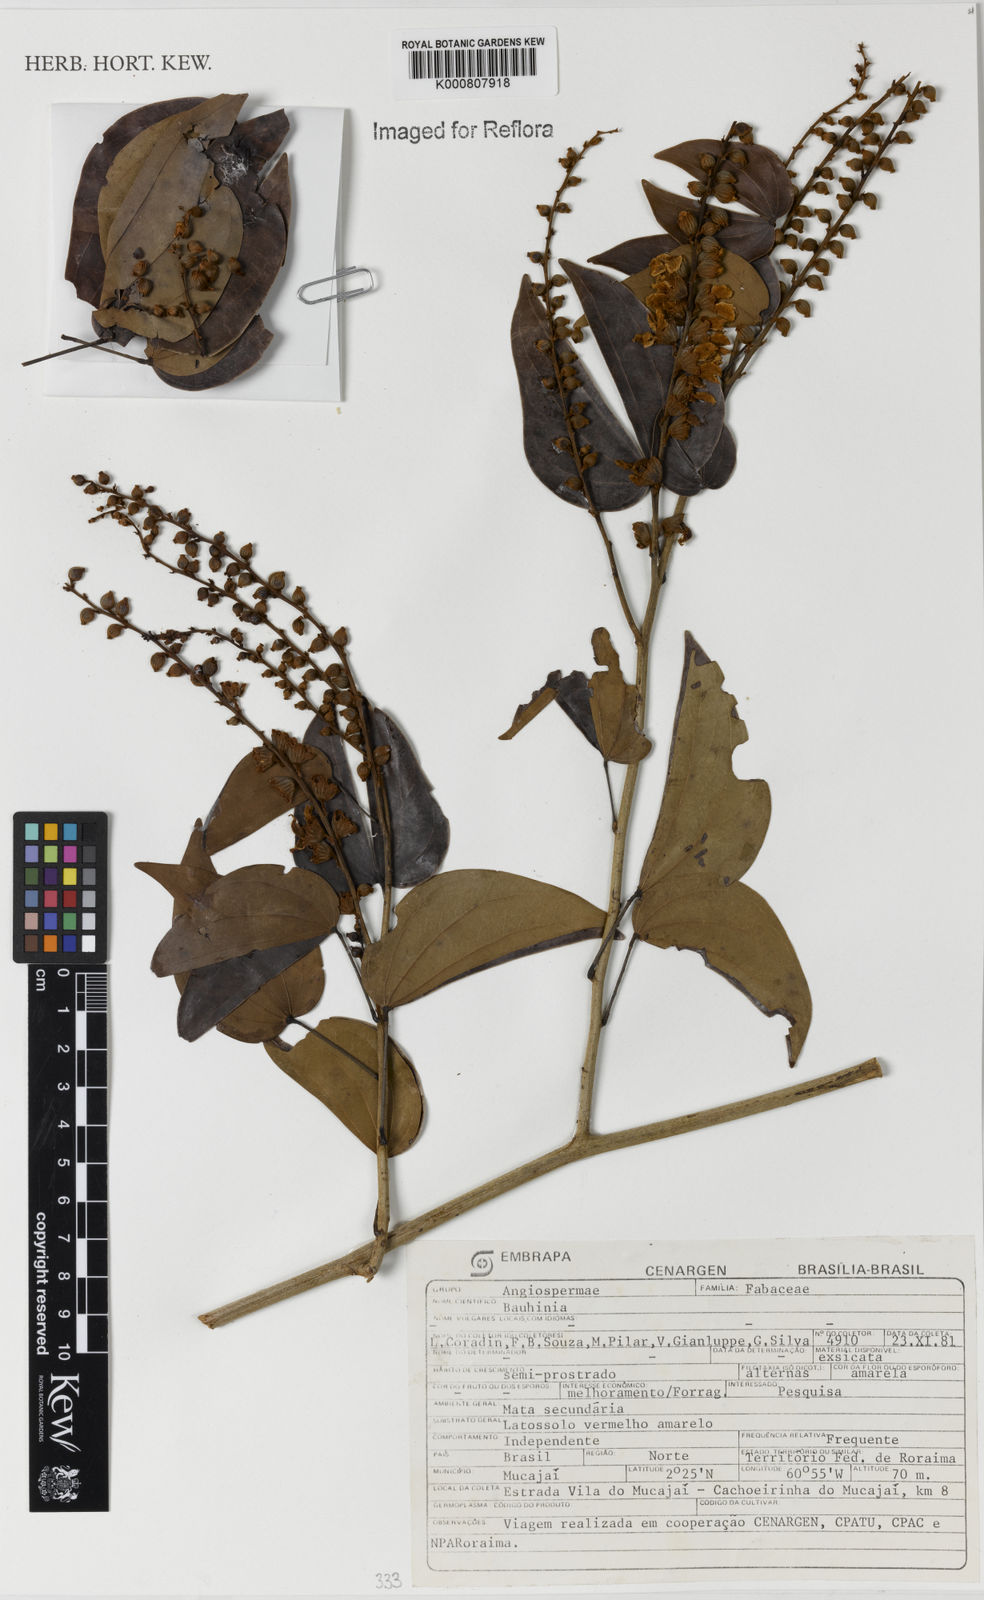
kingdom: Plantae
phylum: Tracheophyta
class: Magnoliopsida
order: Fabales
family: Fabaceae
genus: Schnella
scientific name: Schnella splendens
